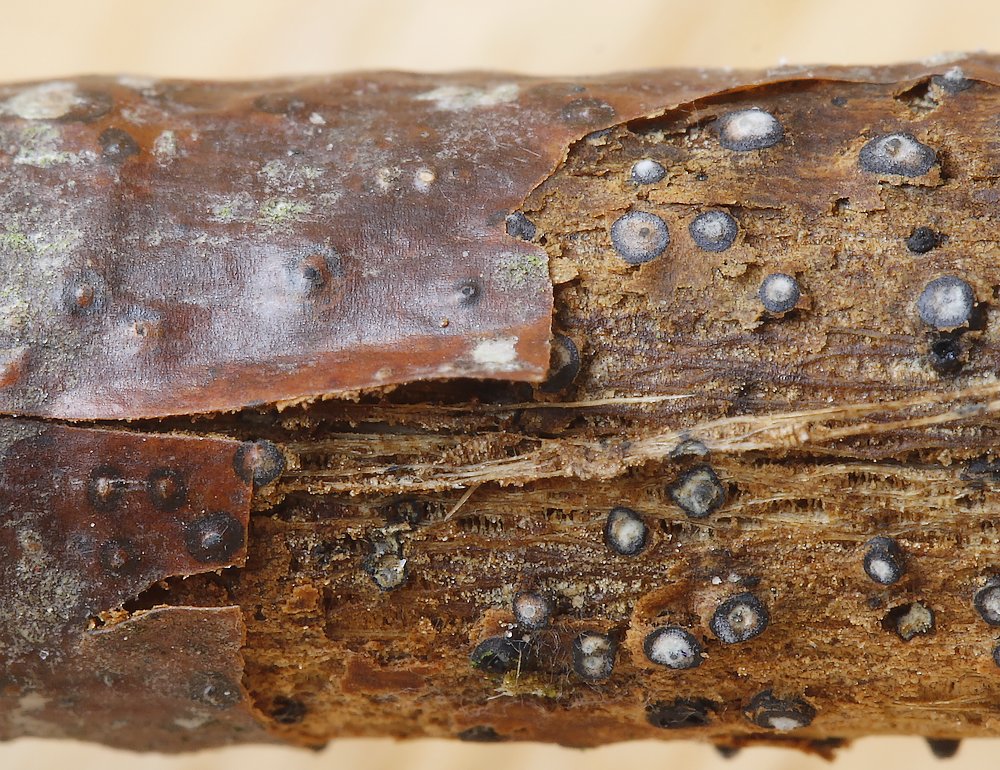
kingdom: Fungi
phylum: Ascomycota
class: Sordariomycetes
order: Diaporthales
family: Lamproconiaceae
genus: Hercospora
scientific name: Hercospora tiliae
